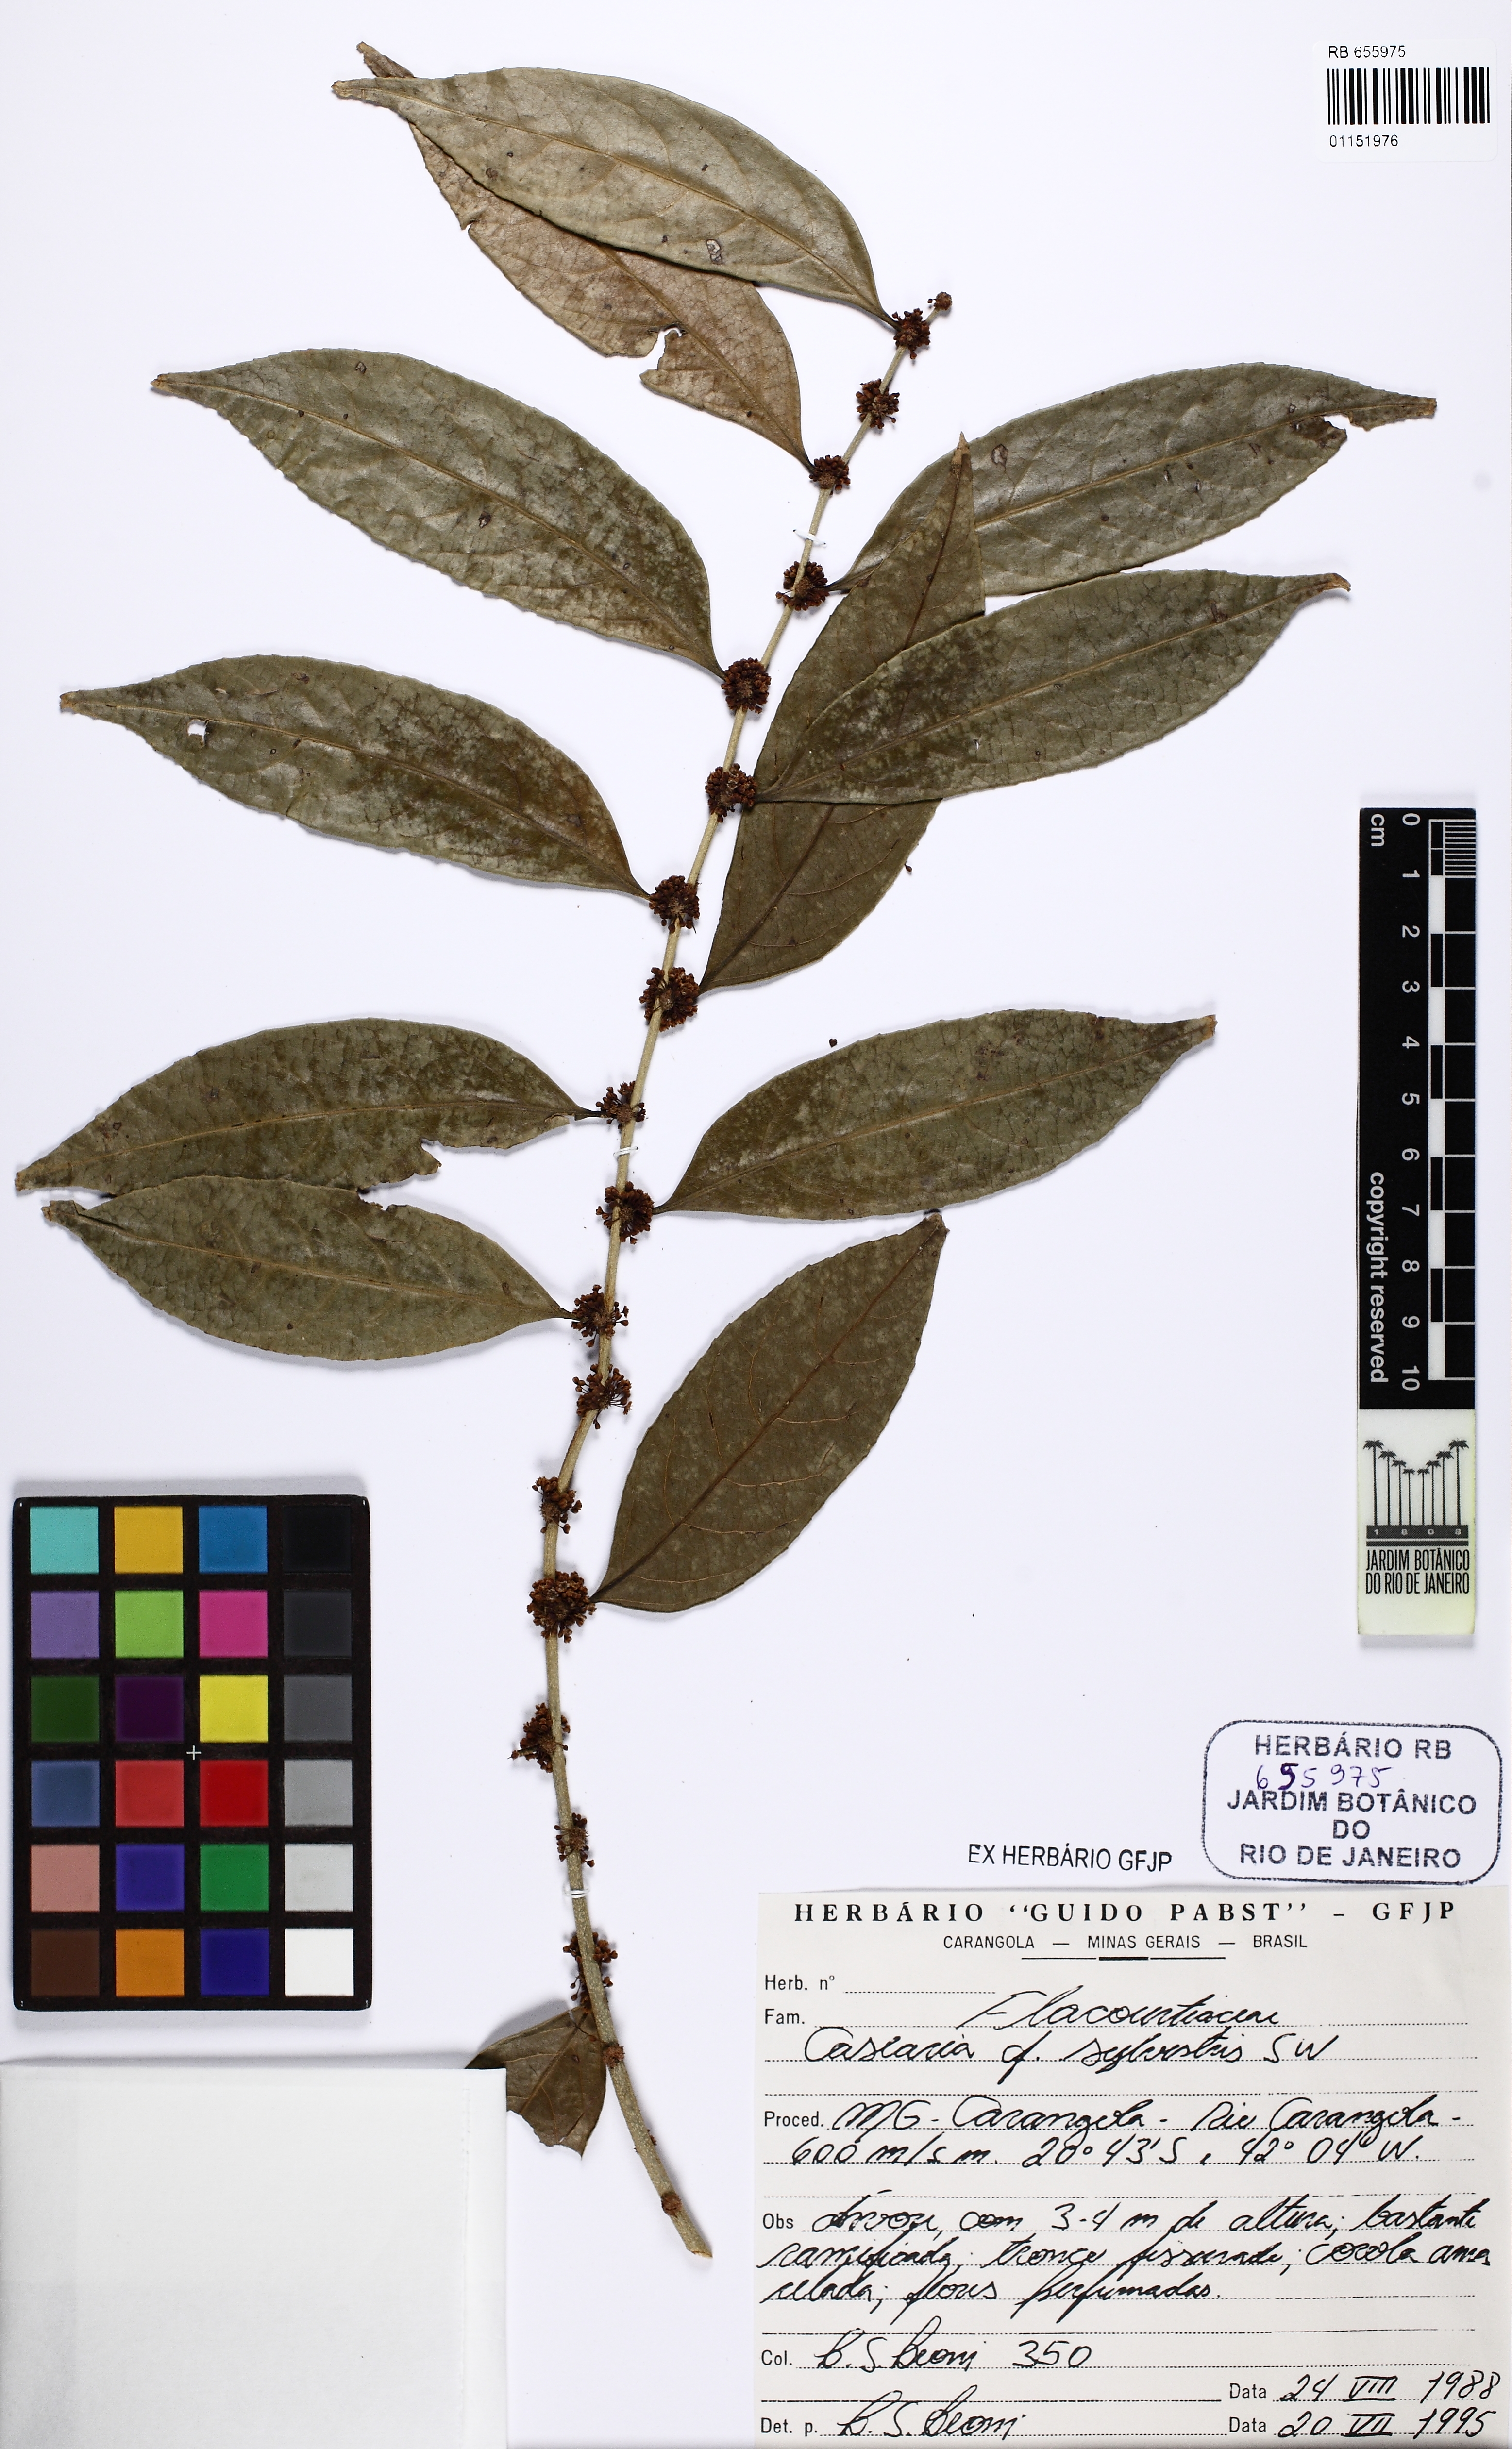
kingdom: Plantae
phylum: Tracheophyta
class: Magnoliopsida
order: Malpighiales
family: Salicaceae
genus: Casearia
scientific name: Casearia sylvestris
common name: Wild sage
